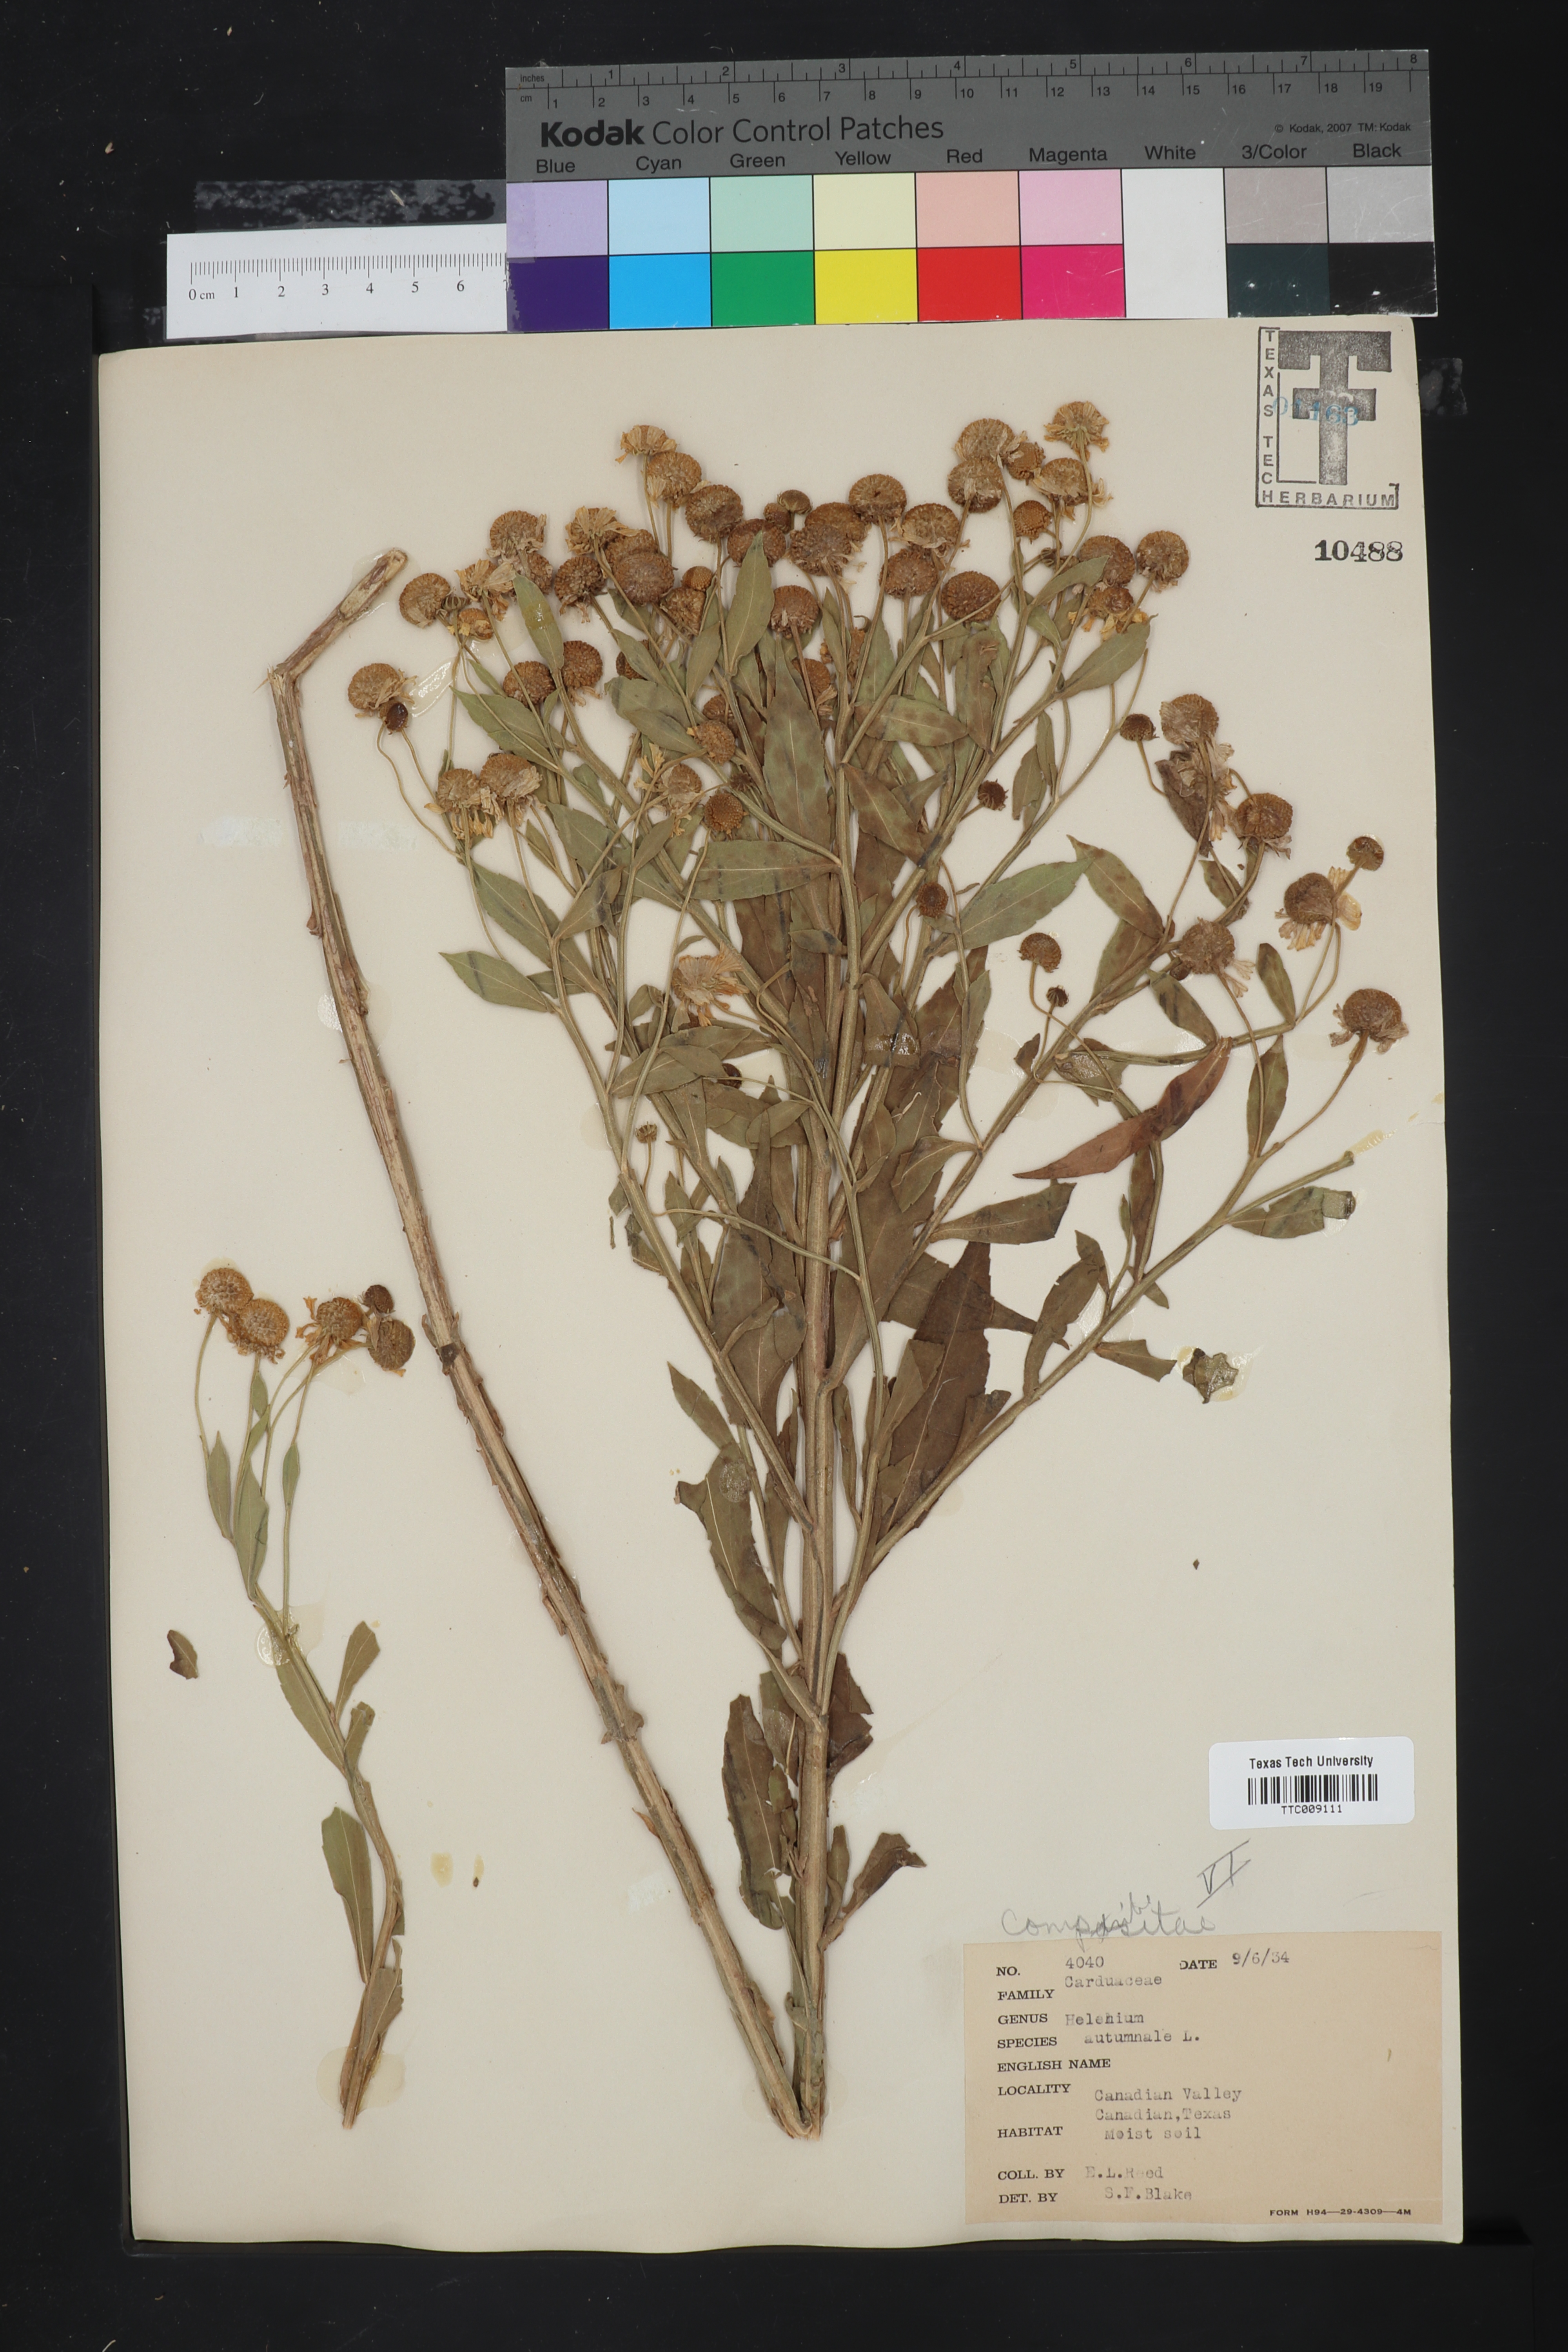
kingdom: Plantae
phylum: Tracheophyta
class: Magnoliopsida
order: Asterales
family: Asteraceae
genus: Helenium
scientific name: Helenium autumnale
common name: Sneezeweed
